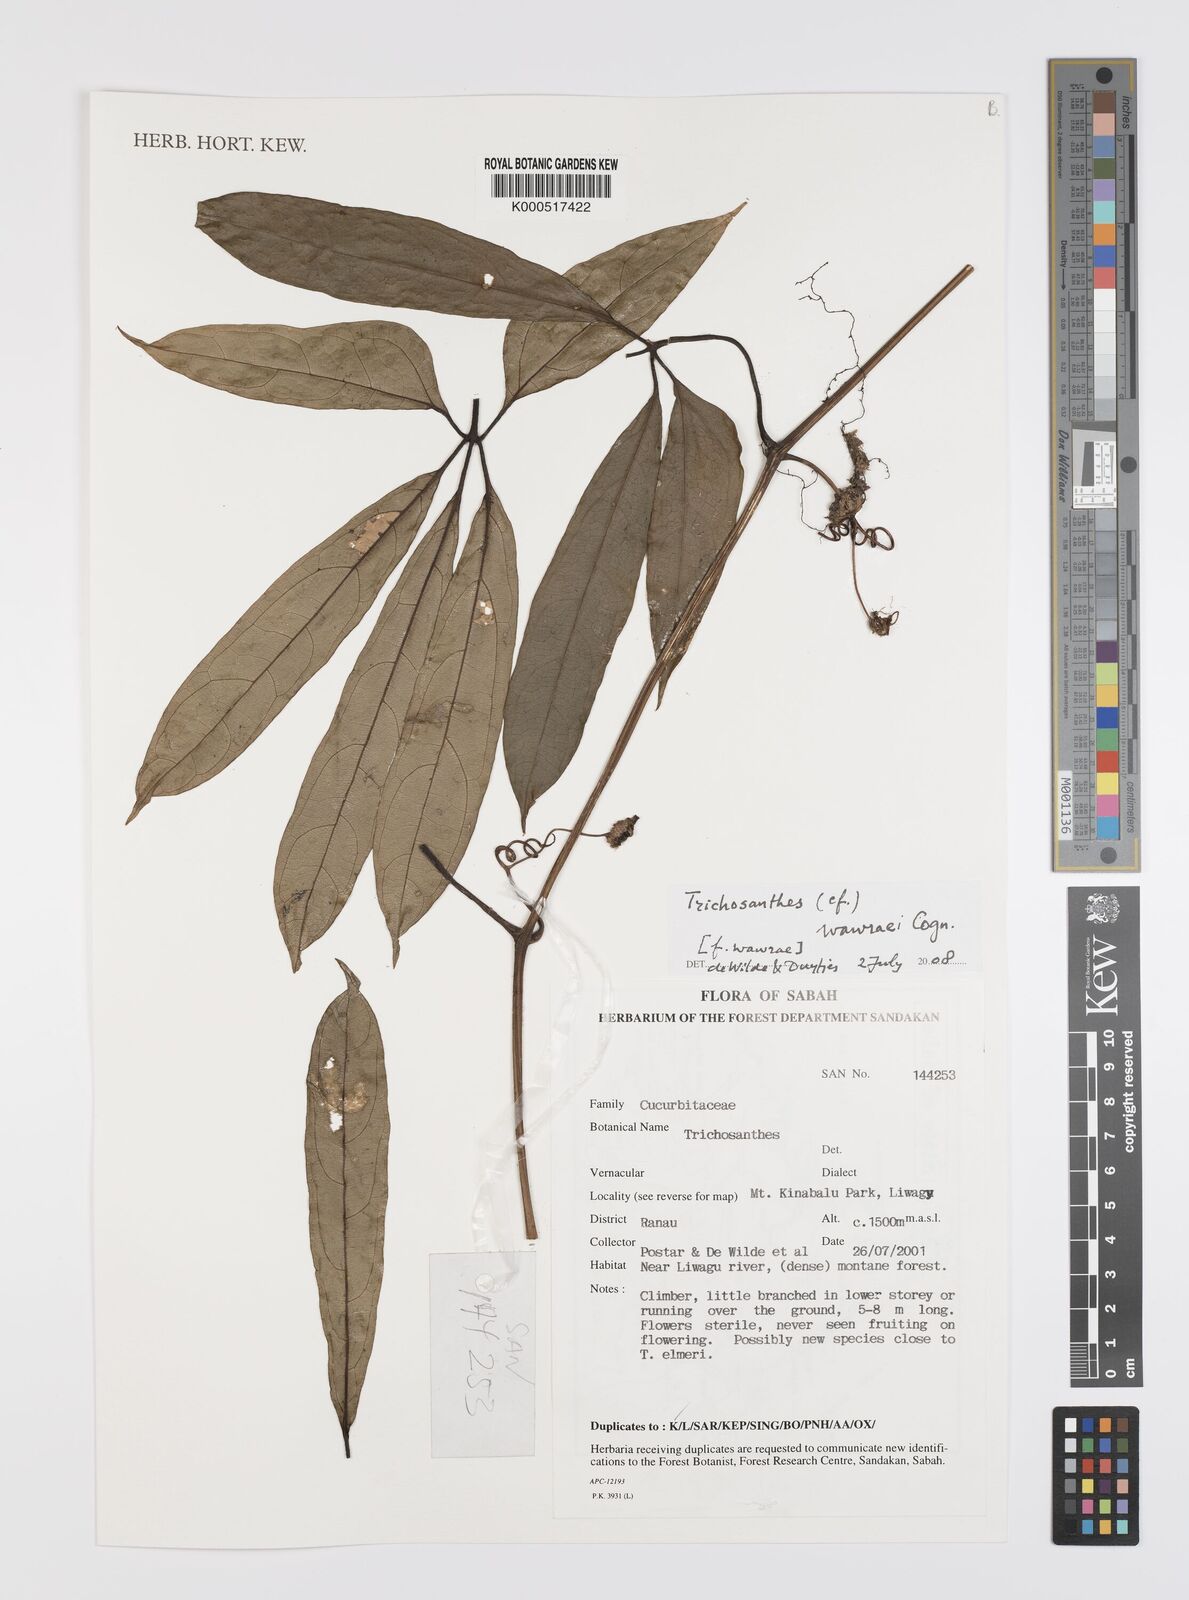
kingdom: Plantae
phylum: Tracheophyta
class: Magnoliopsida
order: Cucurbitales
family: Cucurbitaceae
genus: Trichosanthes
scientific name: Trichosanthes
